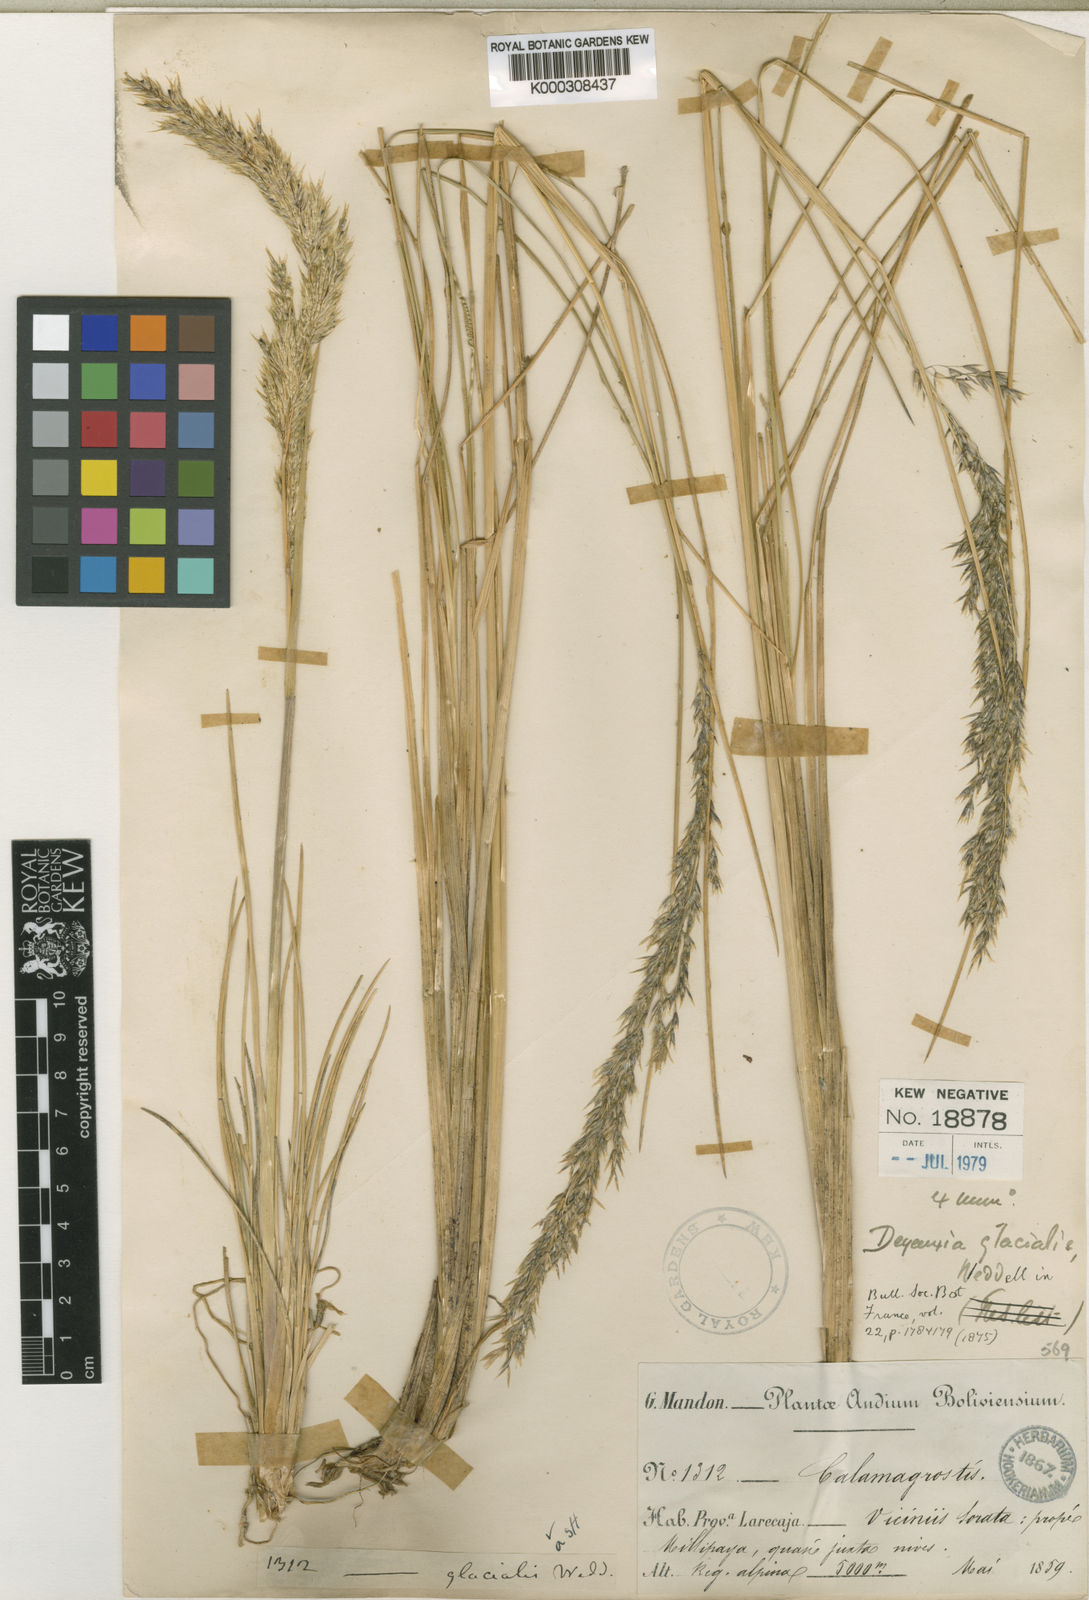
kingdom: Plantae
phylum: Tracheophyta
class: Liliopsida
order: Poales
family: Poaceae
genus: Cinnagrostis
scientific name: Cinnagrostis glacialis
